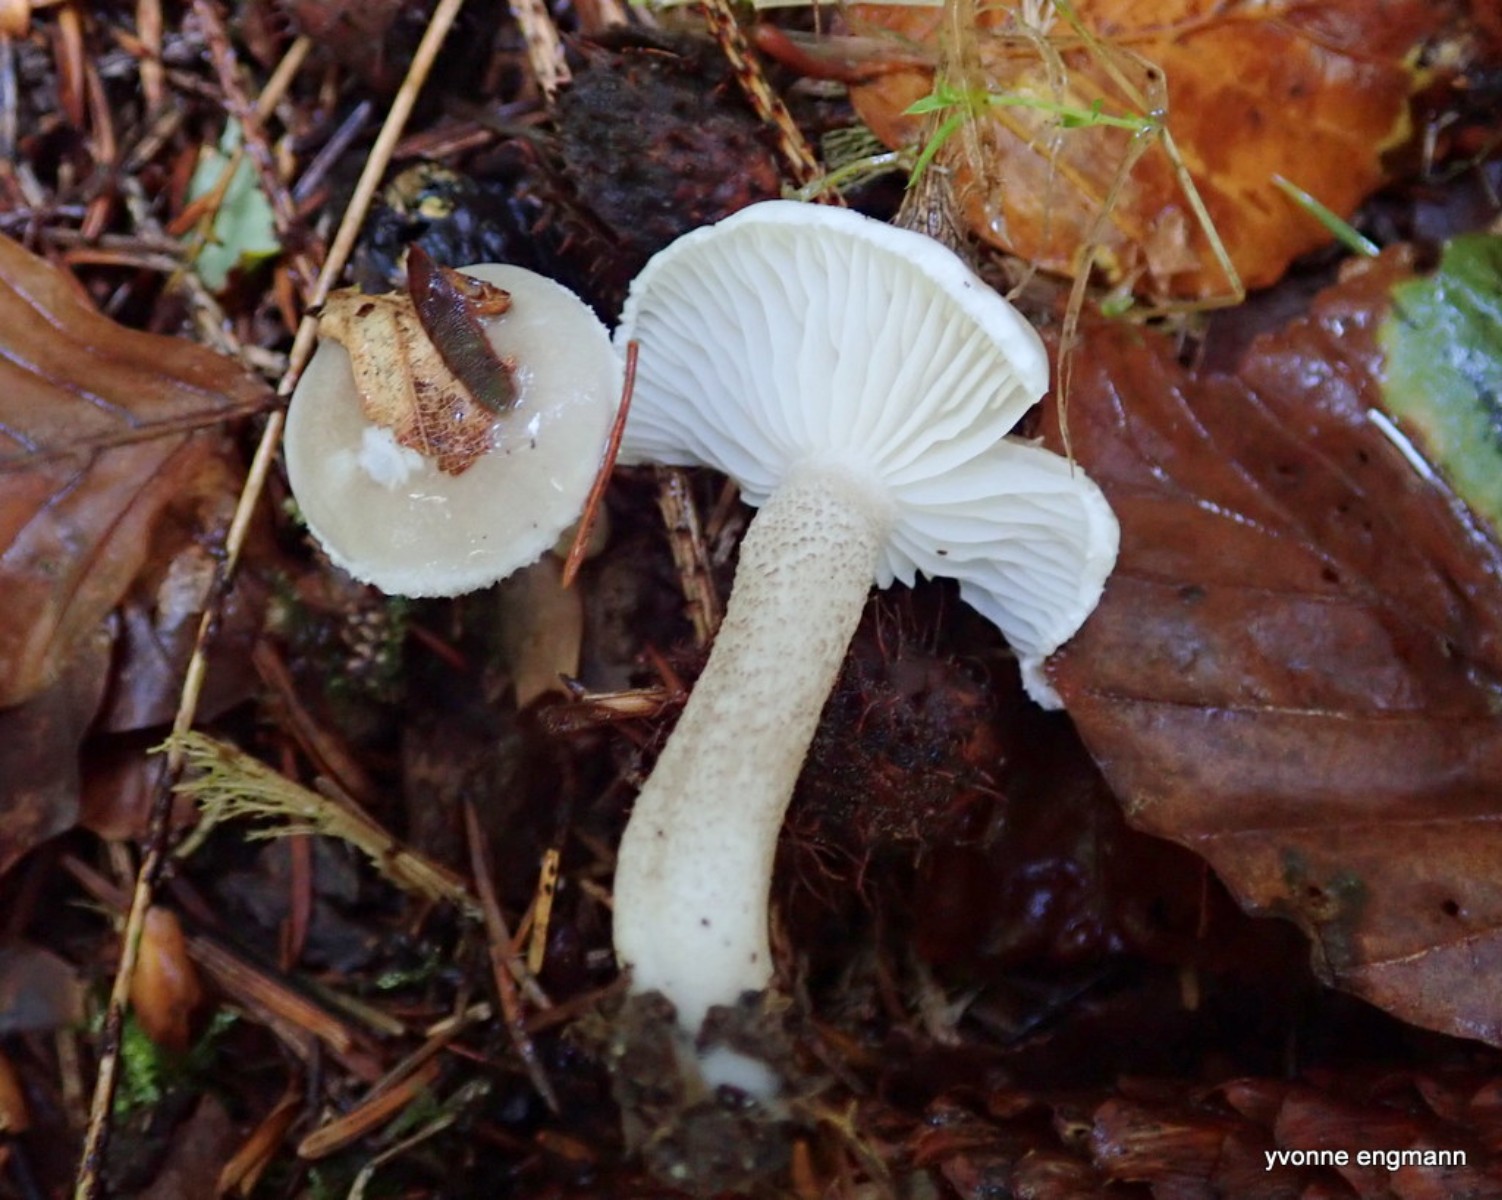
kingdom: Fungi
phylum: Basidiomycota
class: Agaricomycetes
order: Agaricales
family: Hygrophoraceae
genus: Hygrophorus
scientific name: Hygrophorus pustulatus
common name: mørkprikket sneglehat
